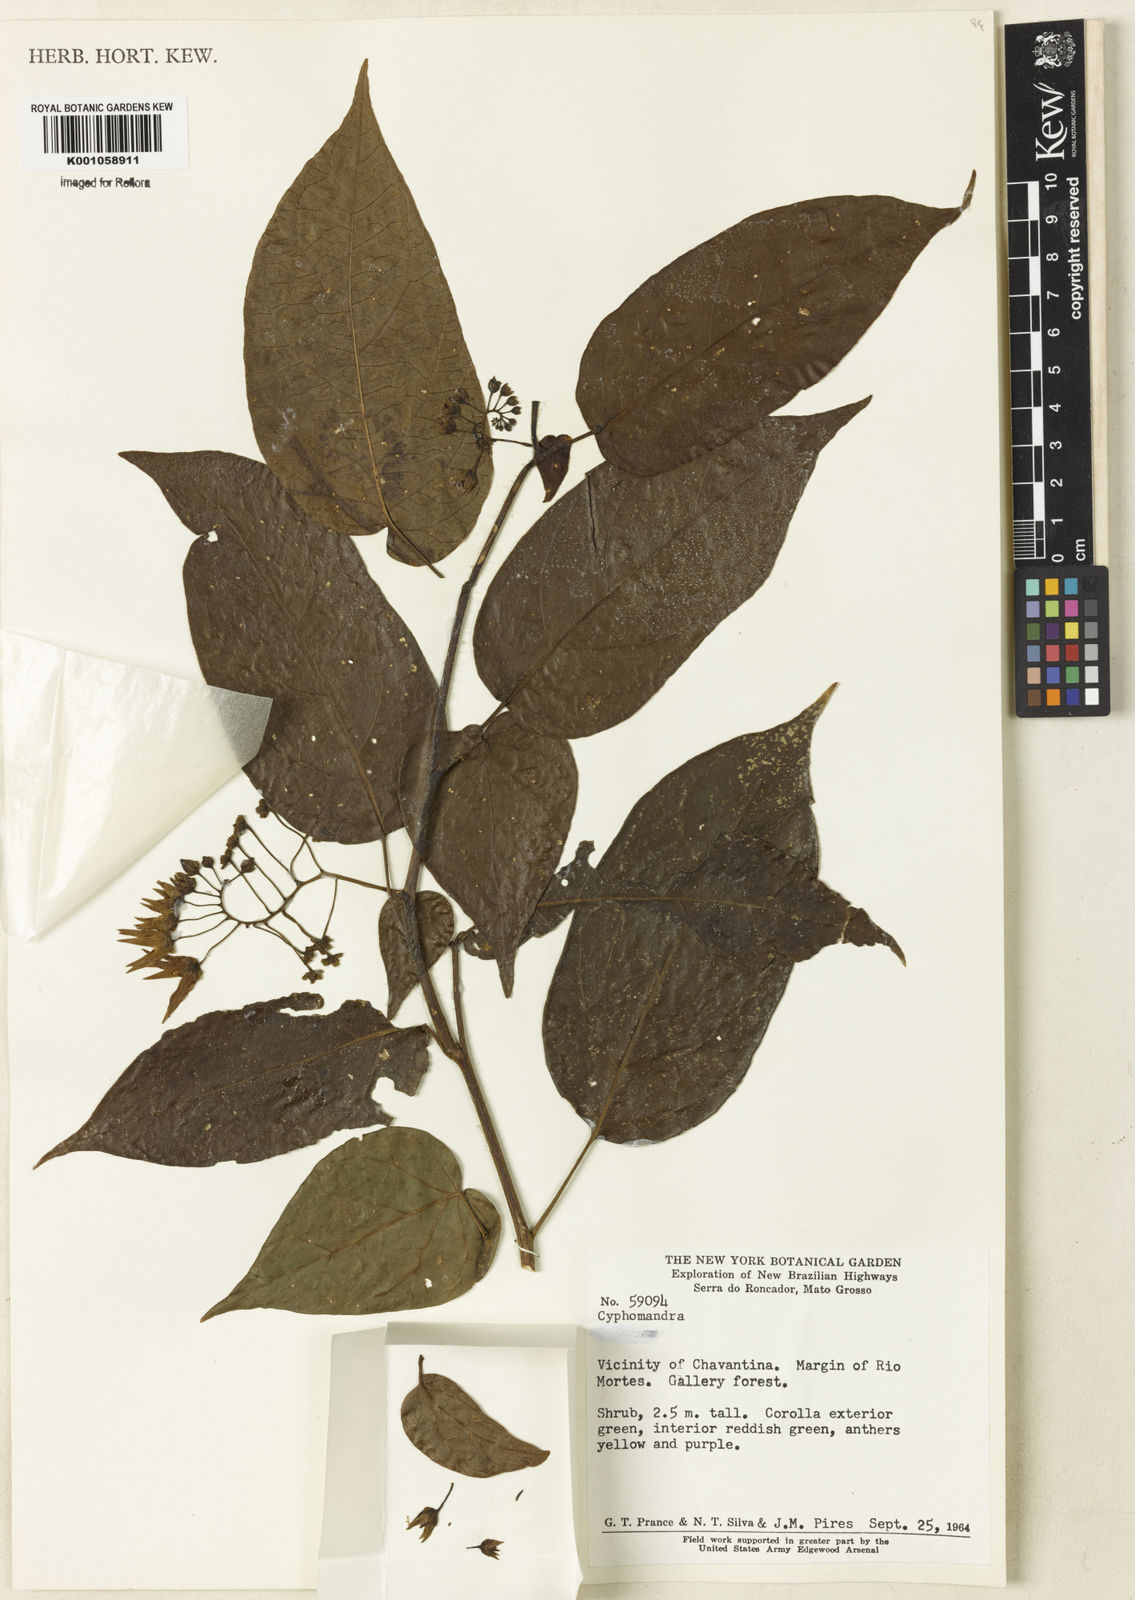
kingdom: Plantae
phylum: Tracheophyta
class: Magnoliopsida
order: Solanales
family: Solanaceae
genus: Solanum
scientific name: Solanum proteanthum
